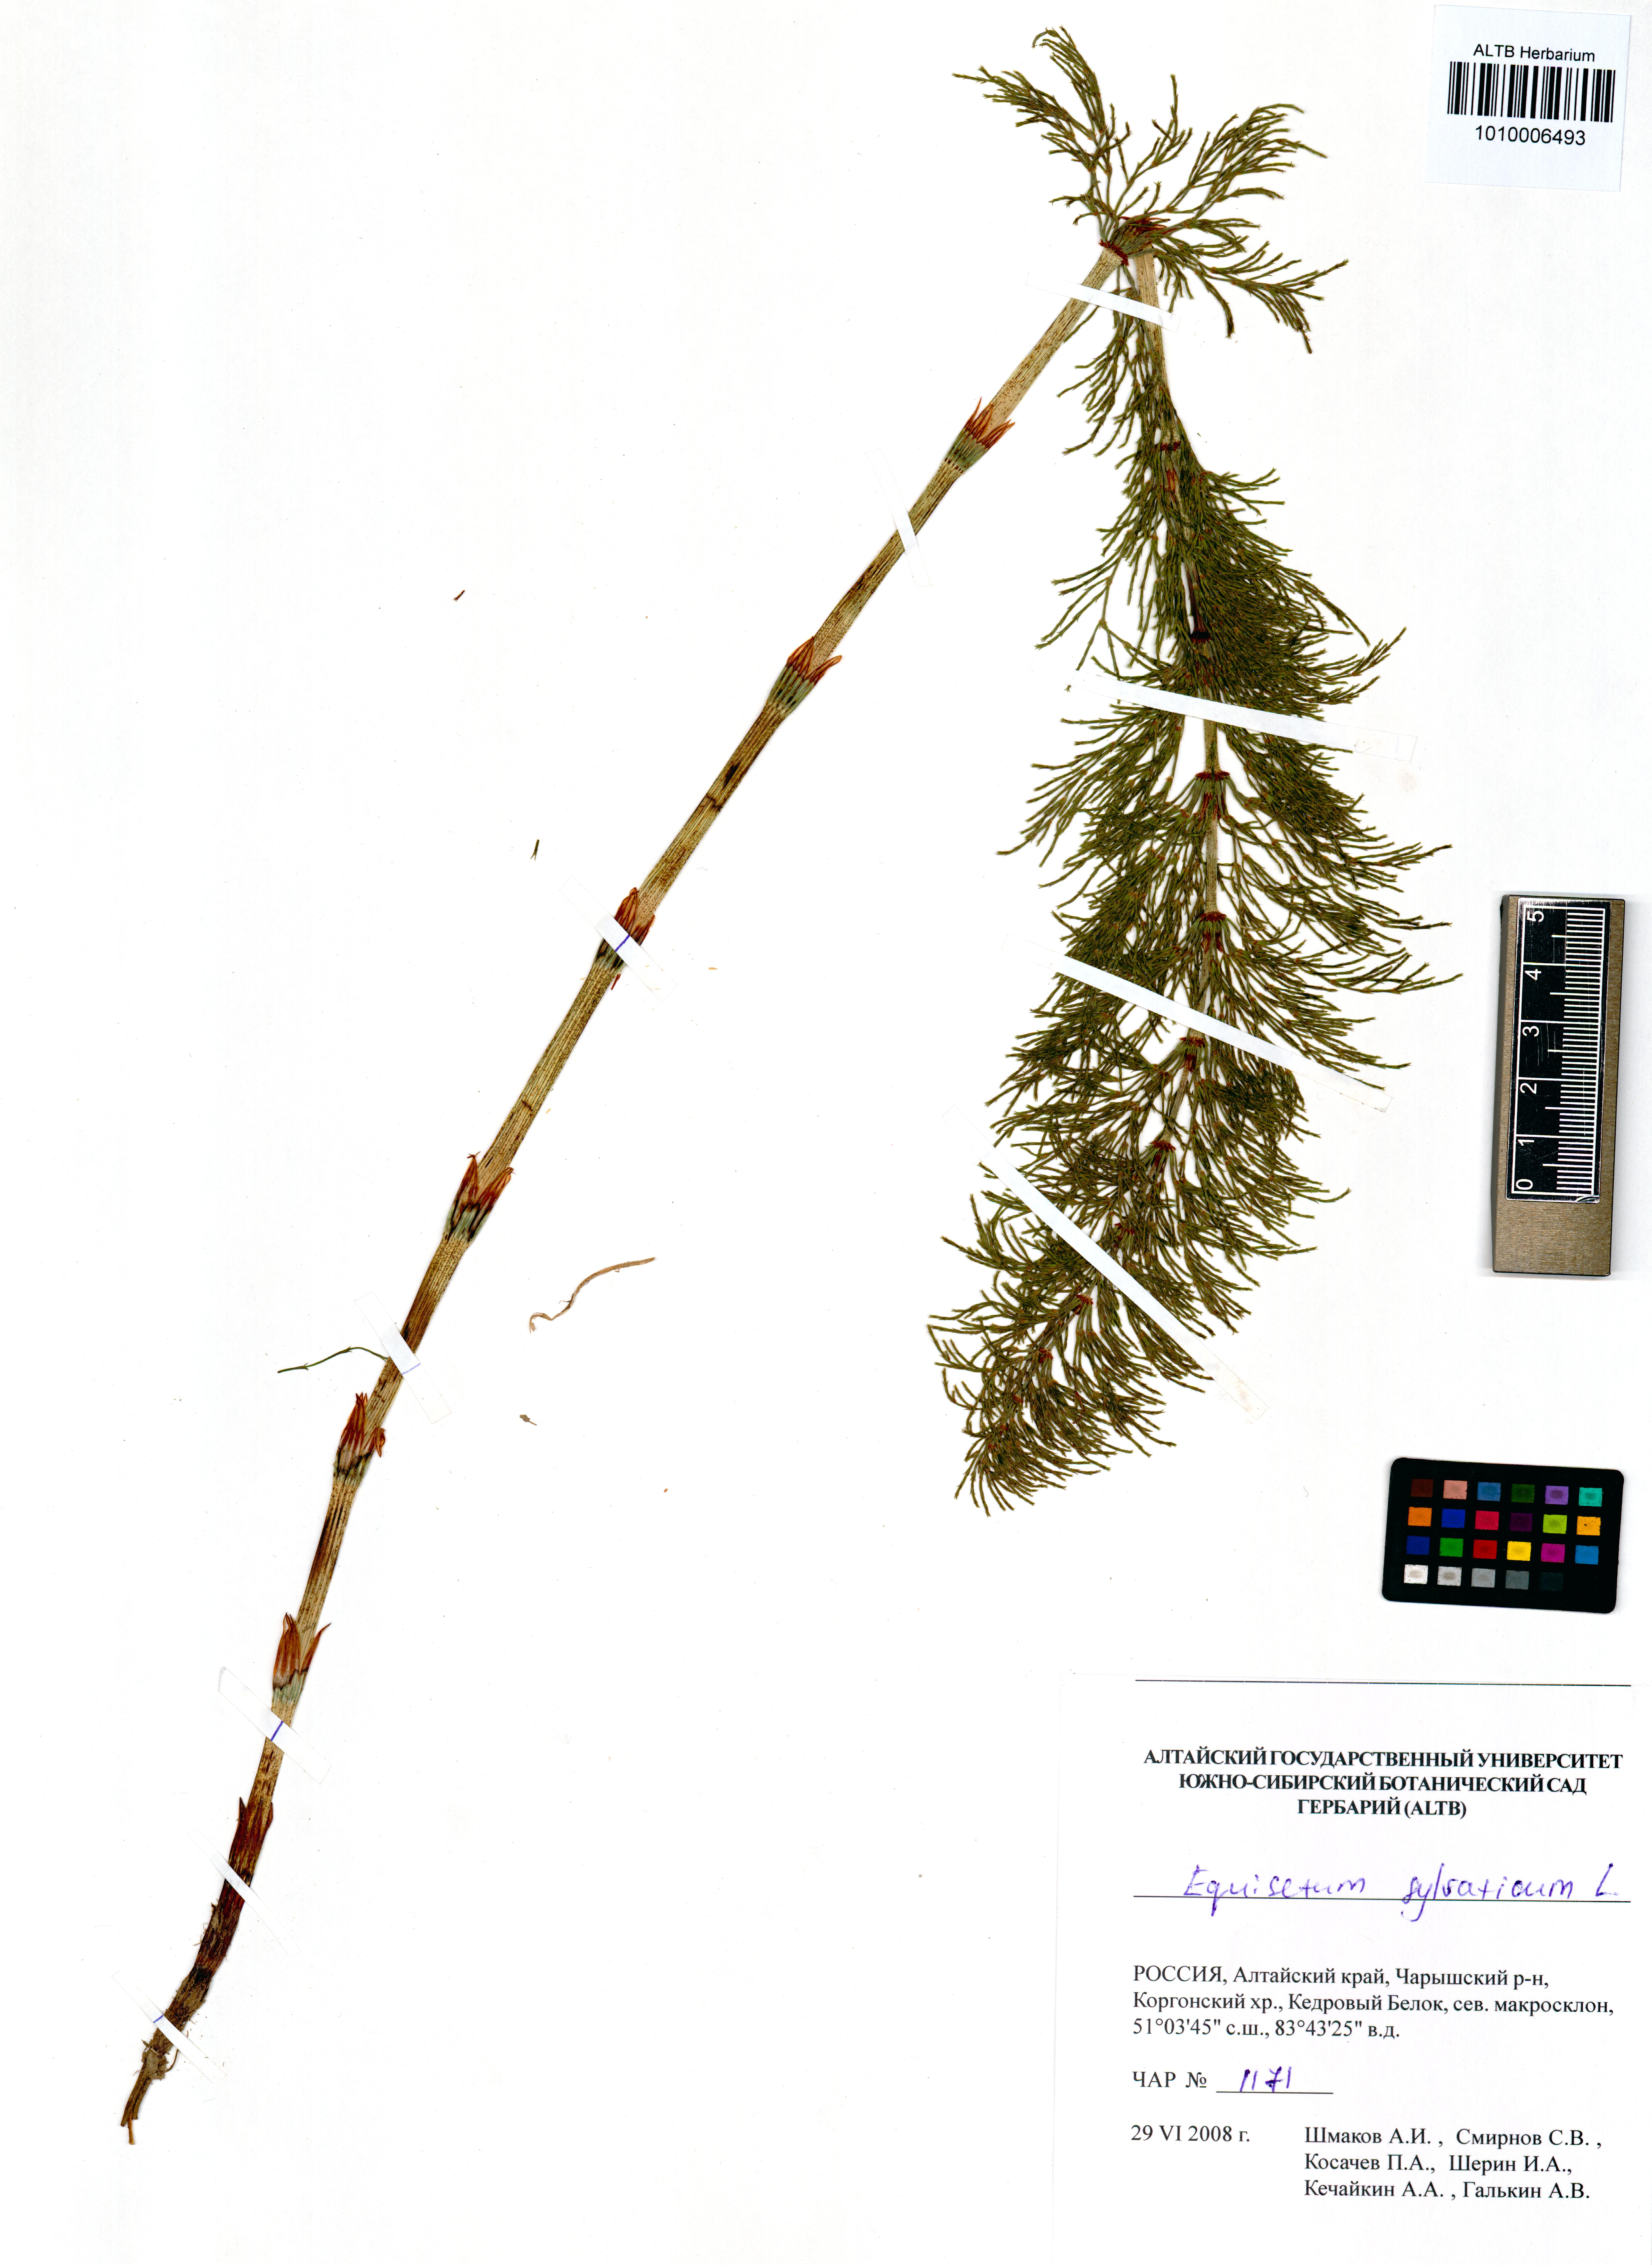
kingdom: Plantae
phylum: Tracheophyta
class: Polypodiopsida
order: Equisetales
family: Equisetaceae
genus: Equisetum
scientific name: Equisetum sylvaticum
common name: Wood horsetail
